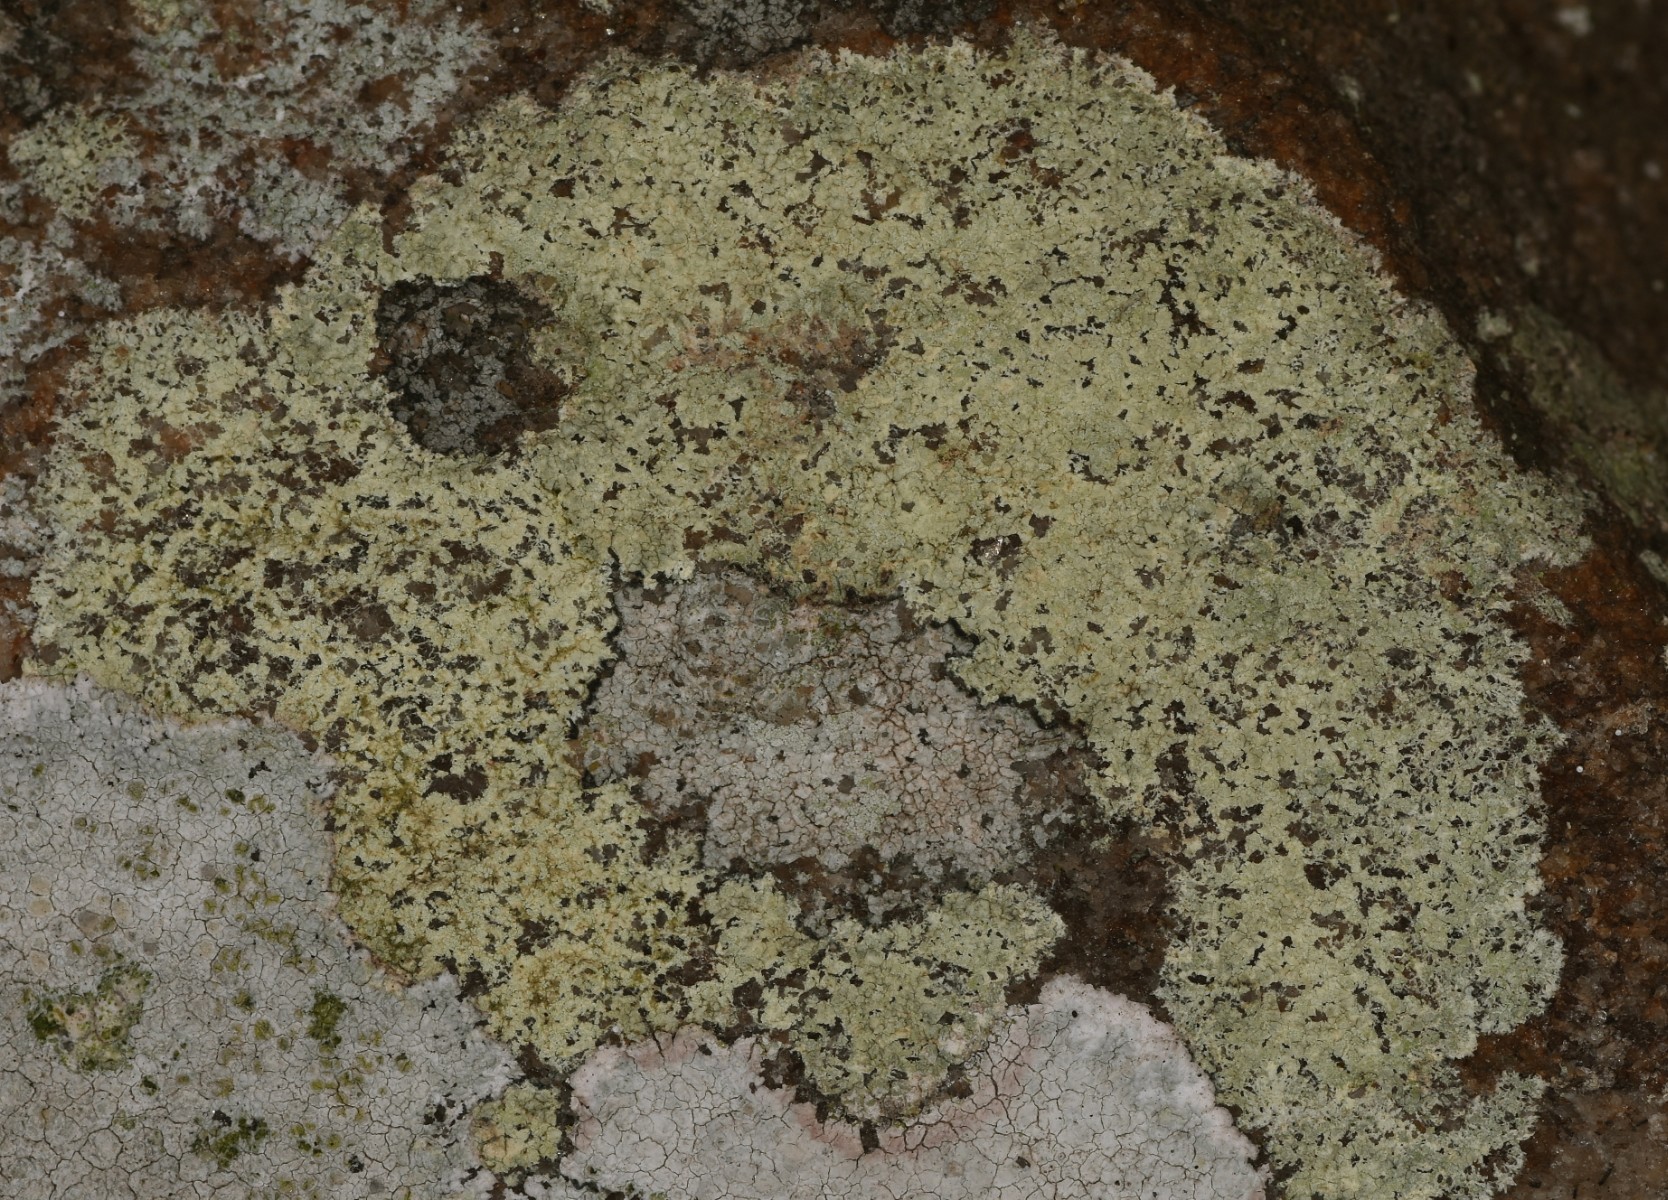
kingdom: Fungi
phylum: Ascomycota
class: Lecanoromycetes
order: Lecanorales
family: Lecanoraceae
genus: Glaucomaria
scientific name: Glaucomaria sulphurea
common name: svovlgul kantskivelav
